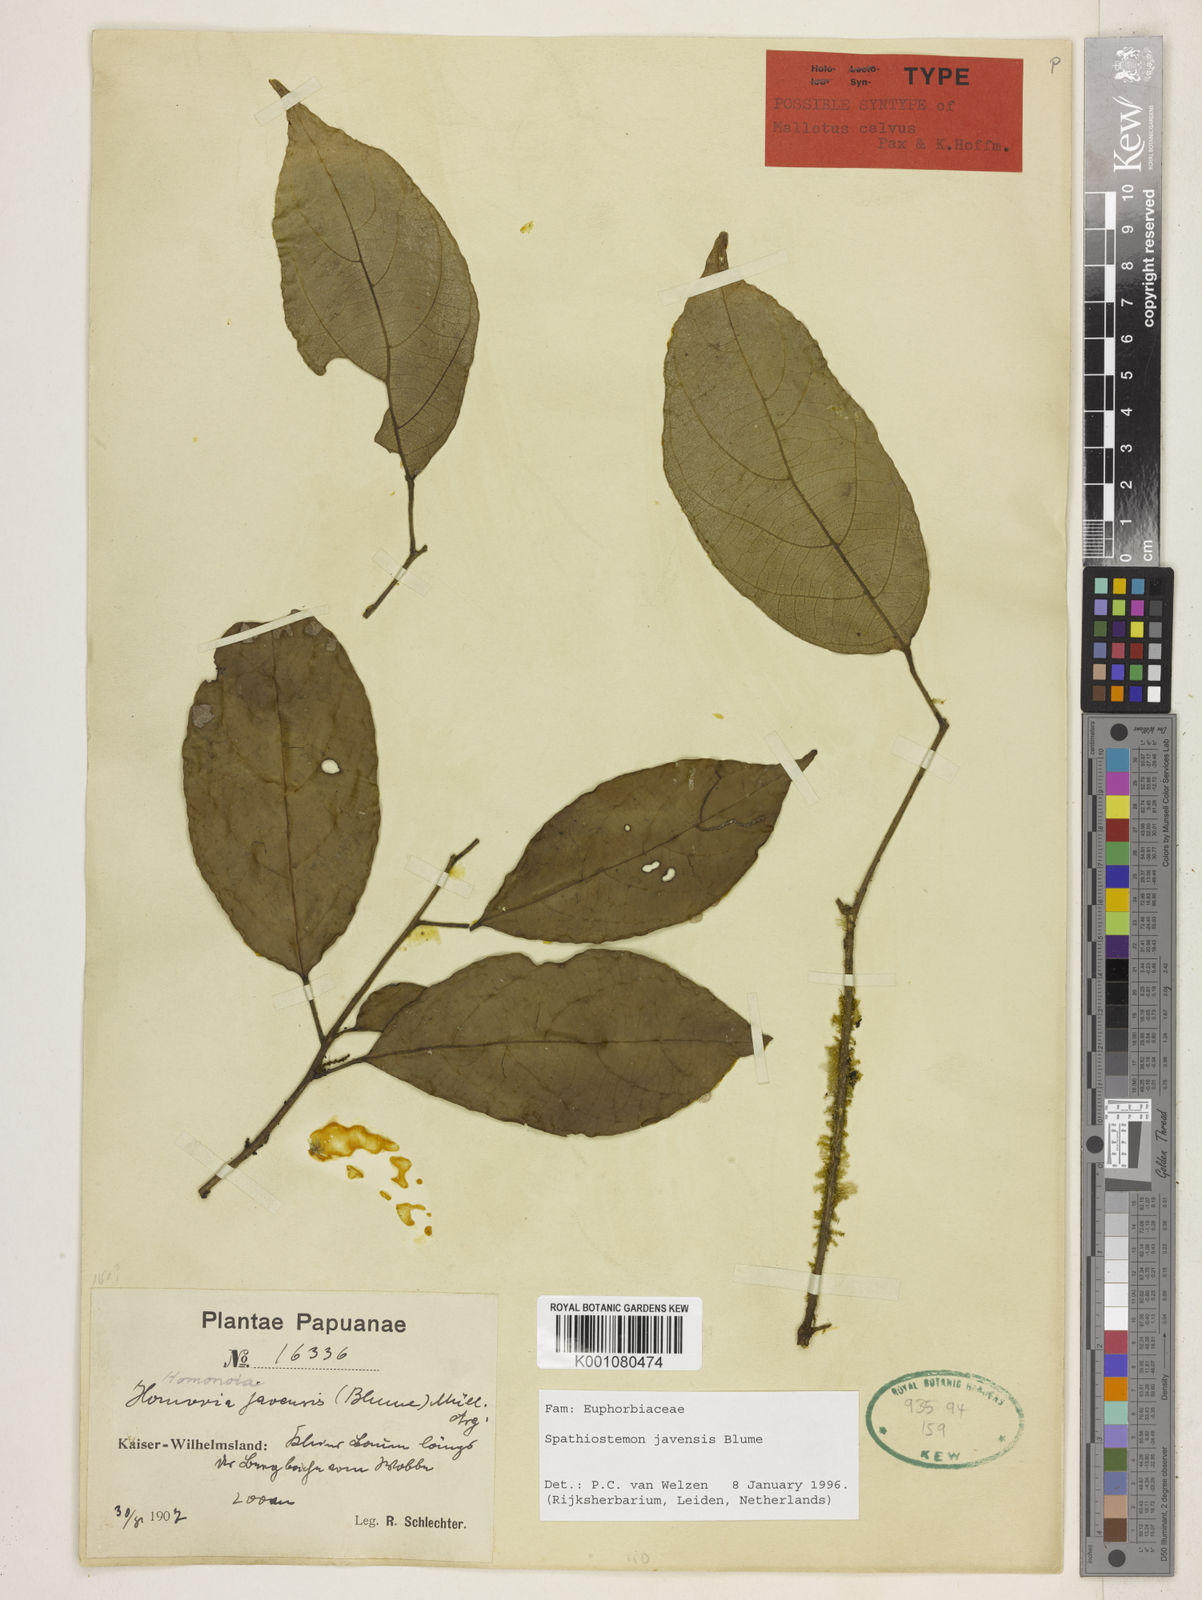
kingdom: Plantae
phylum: Tracheophyta
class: Magnoliopsida
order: Malpighiales
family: Euphorbiaceae
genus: Spathiostemon
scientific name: Spathiostemon javensis
